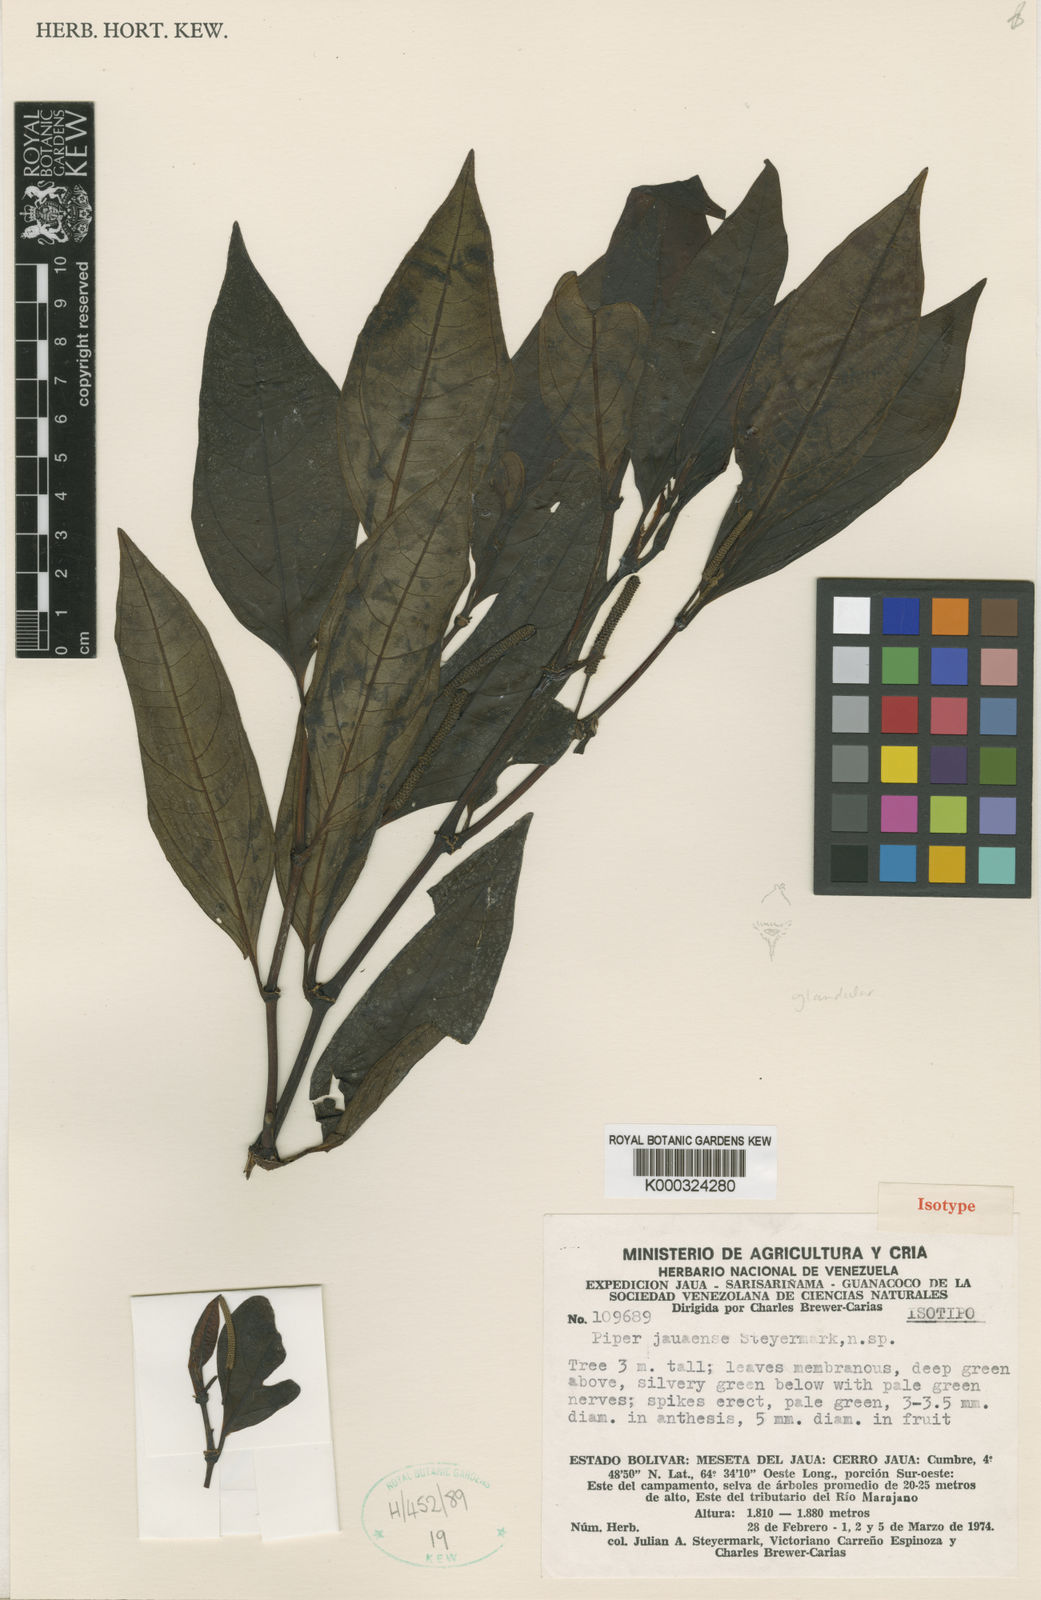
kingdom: Plantae
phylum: Tracheophyta
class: Magnoliopsida
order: Piperales
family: Piperaceae
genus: Piper
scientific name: Piper jauaense
